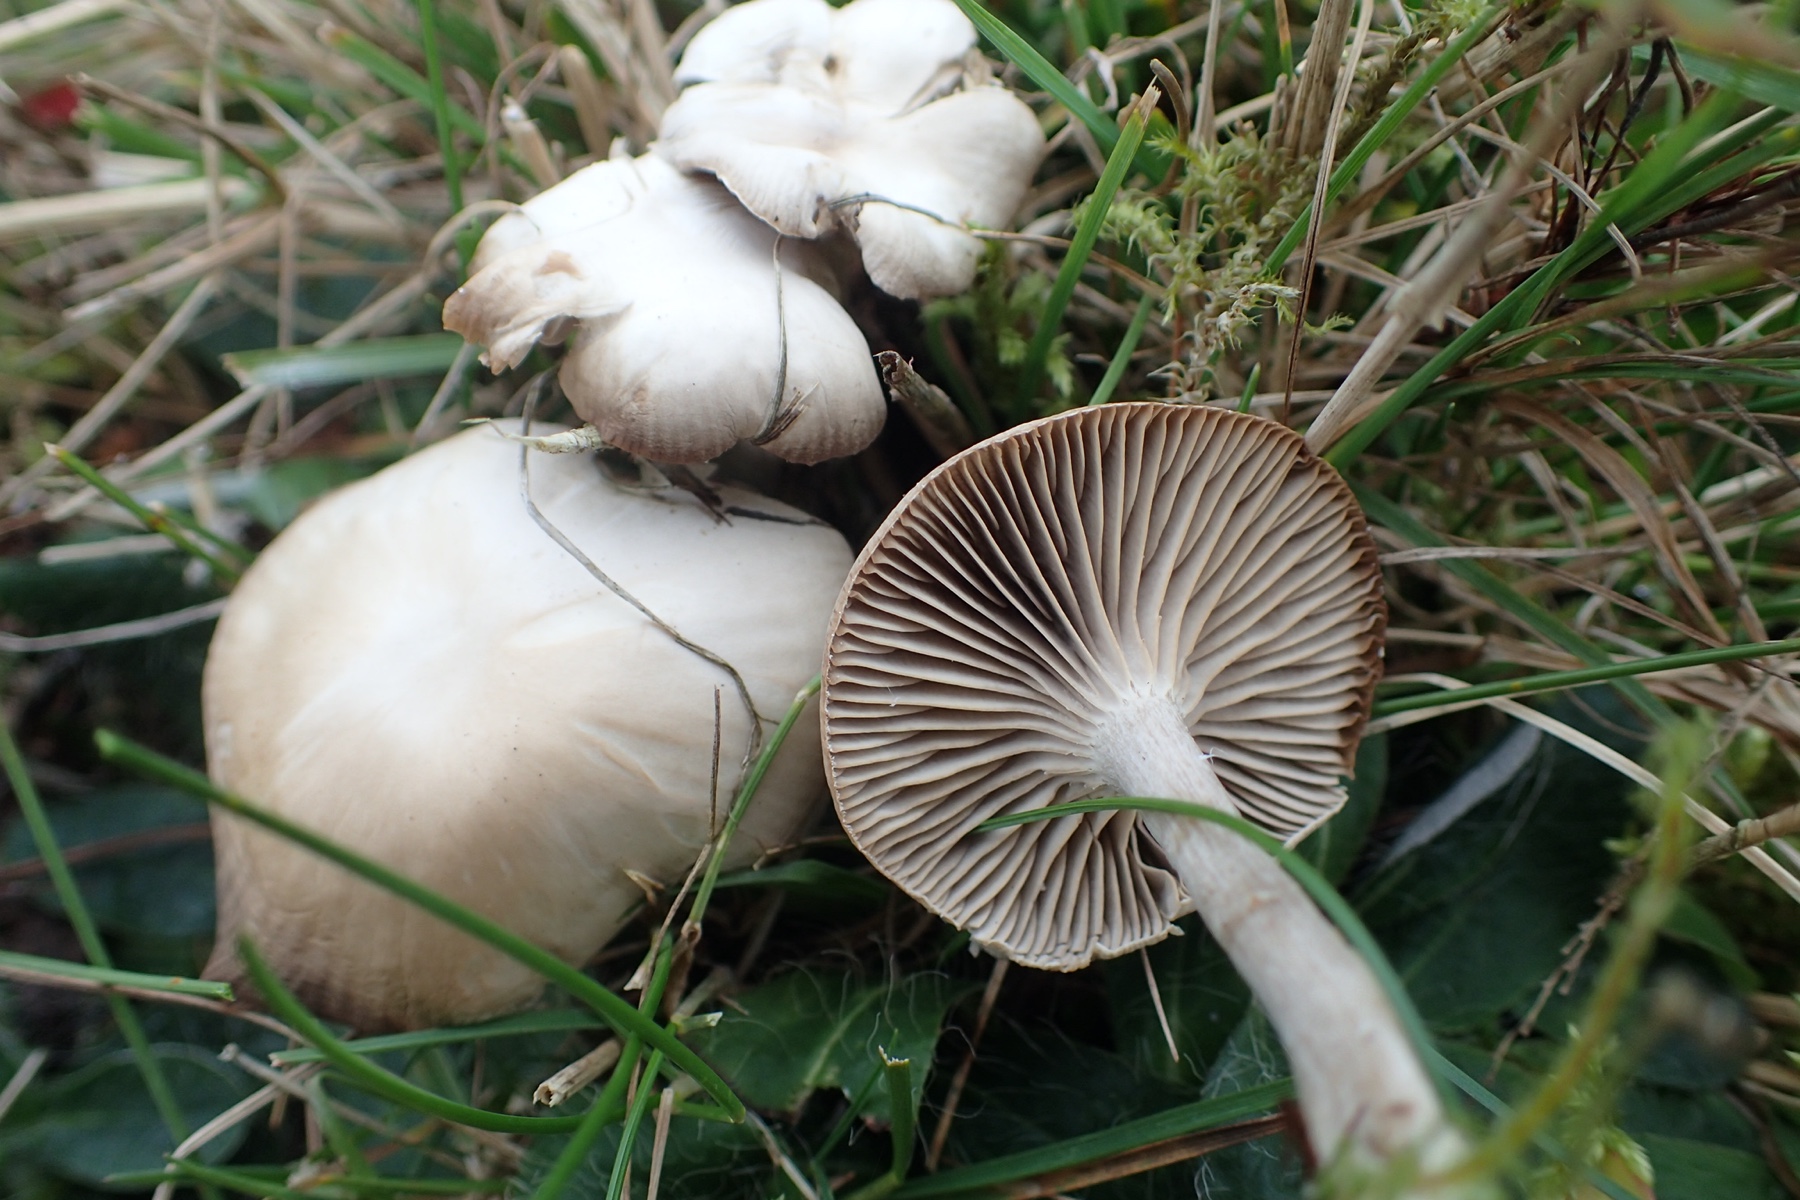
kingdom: Fungi
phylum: Basidiomycota
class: Agaricomycetes
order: Agaricales
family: Tricholomataceae
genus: Clitocybe
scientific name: Clitocybe
